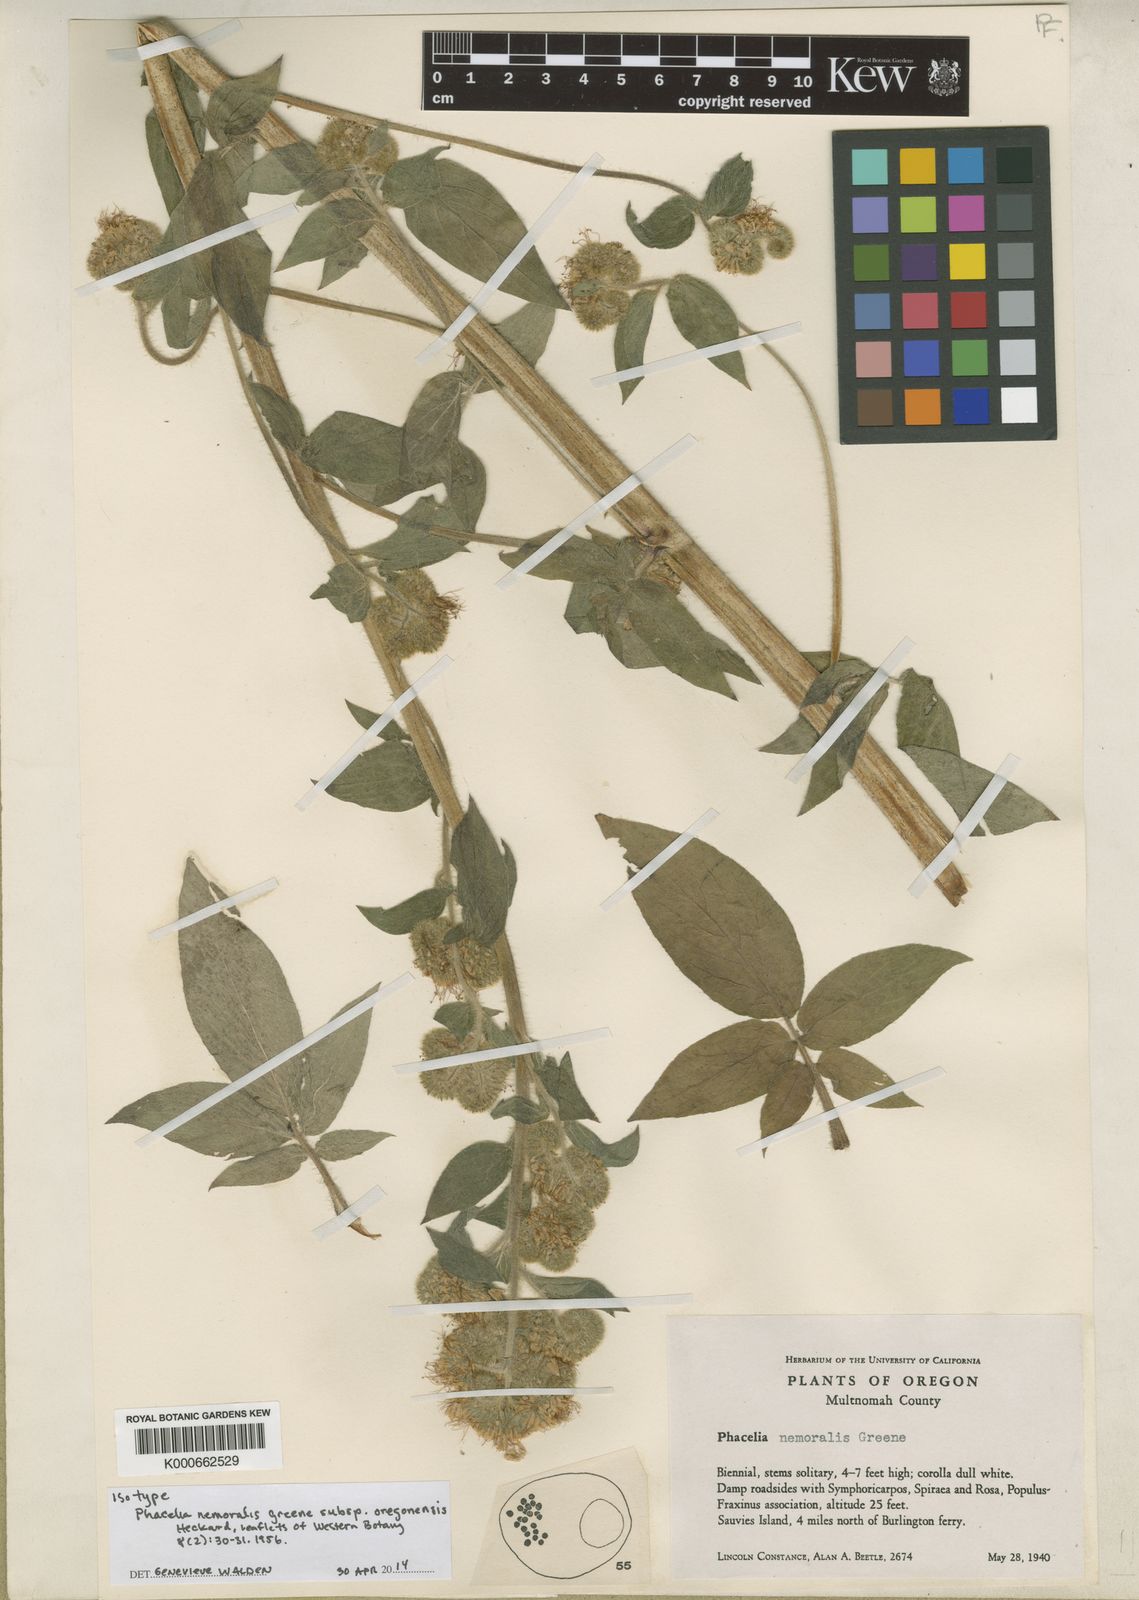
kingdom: Plantae
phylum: Tracheophyta
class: Magnoliopsida
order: Boraginales
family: Hydrophyllaceae
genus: Phacelia
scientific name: Phacelia nemoralis
